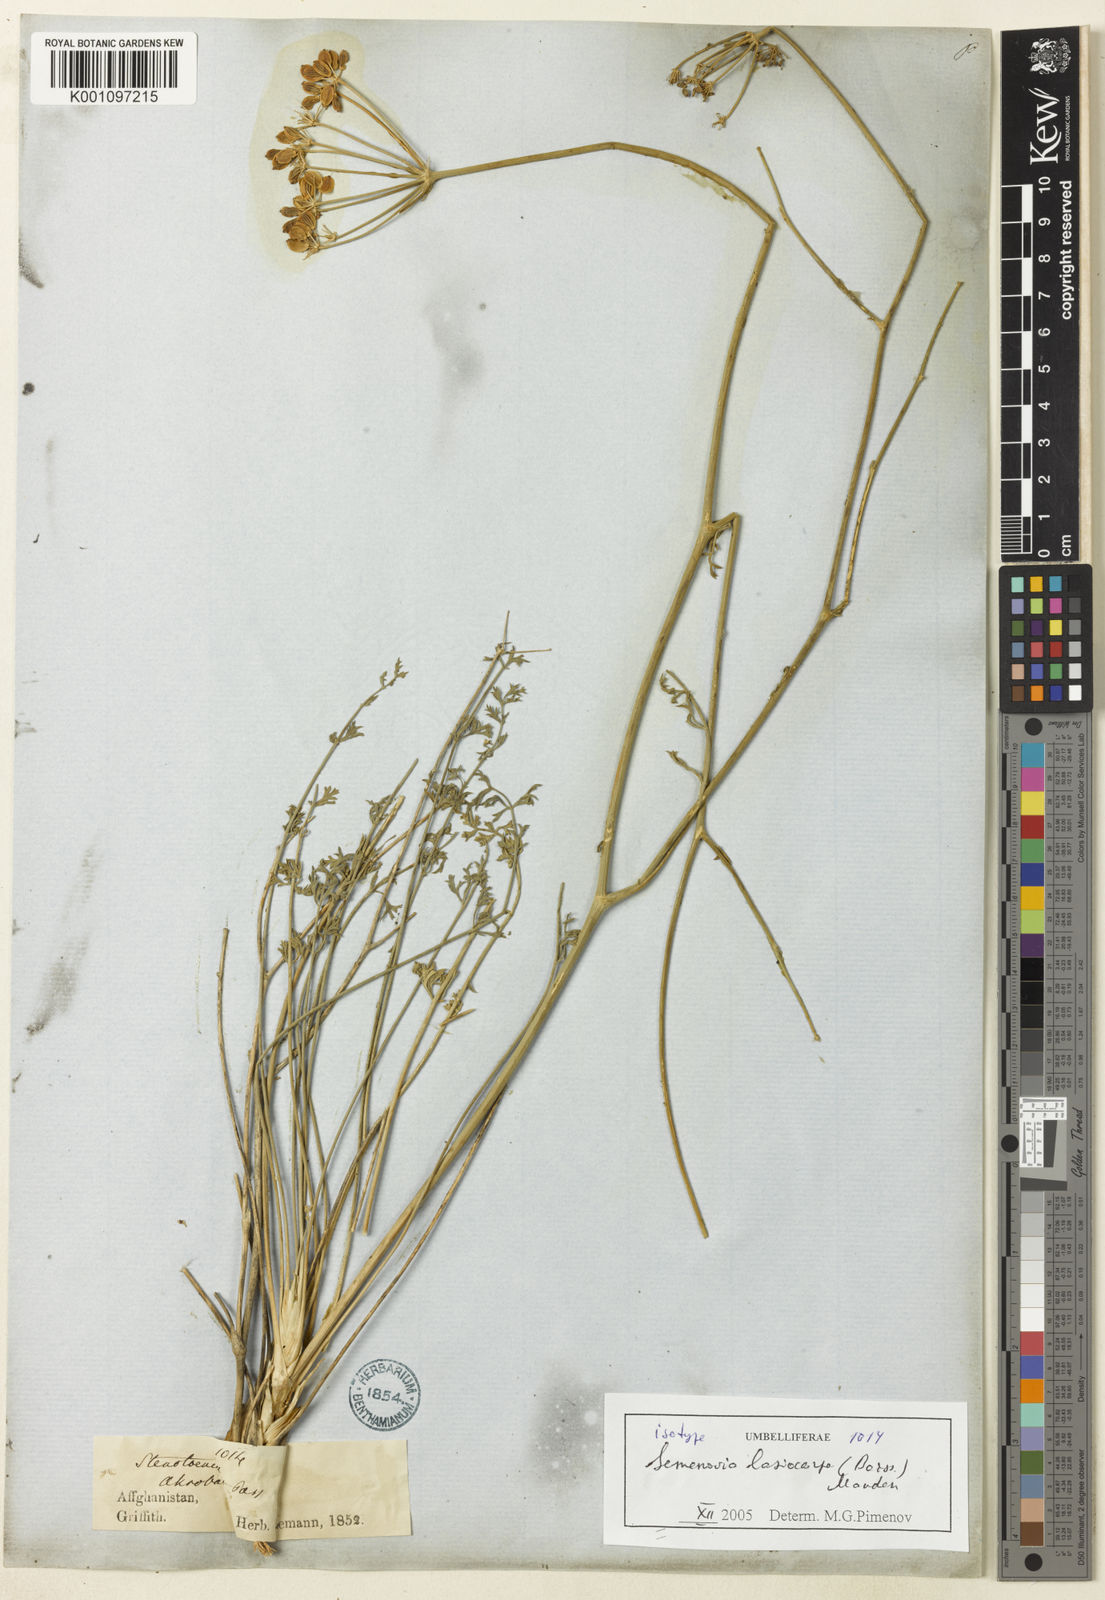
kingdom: Plantae
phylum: Tracheophyta
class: Magnoliopsida
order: Apiales
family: Apiaceae
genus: Semenovia
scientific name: Semenovia lasiocarpa
